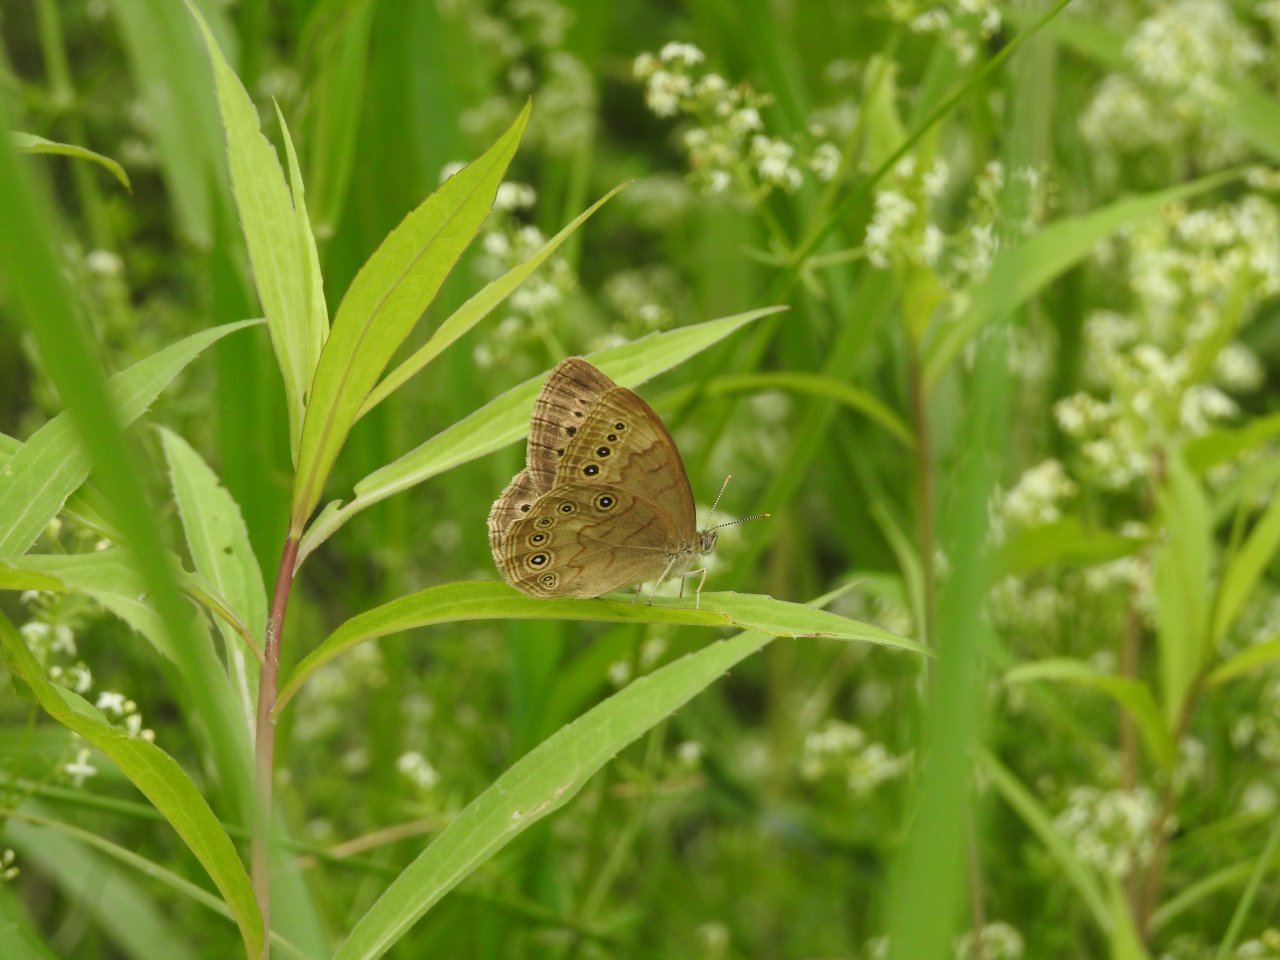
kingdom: Animalia
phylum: Arthropoda
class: Insecta
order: Lepidoptera
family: Nymphalidae
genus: Lethe
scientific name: Lethe eurydice
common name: Eyed Brown
